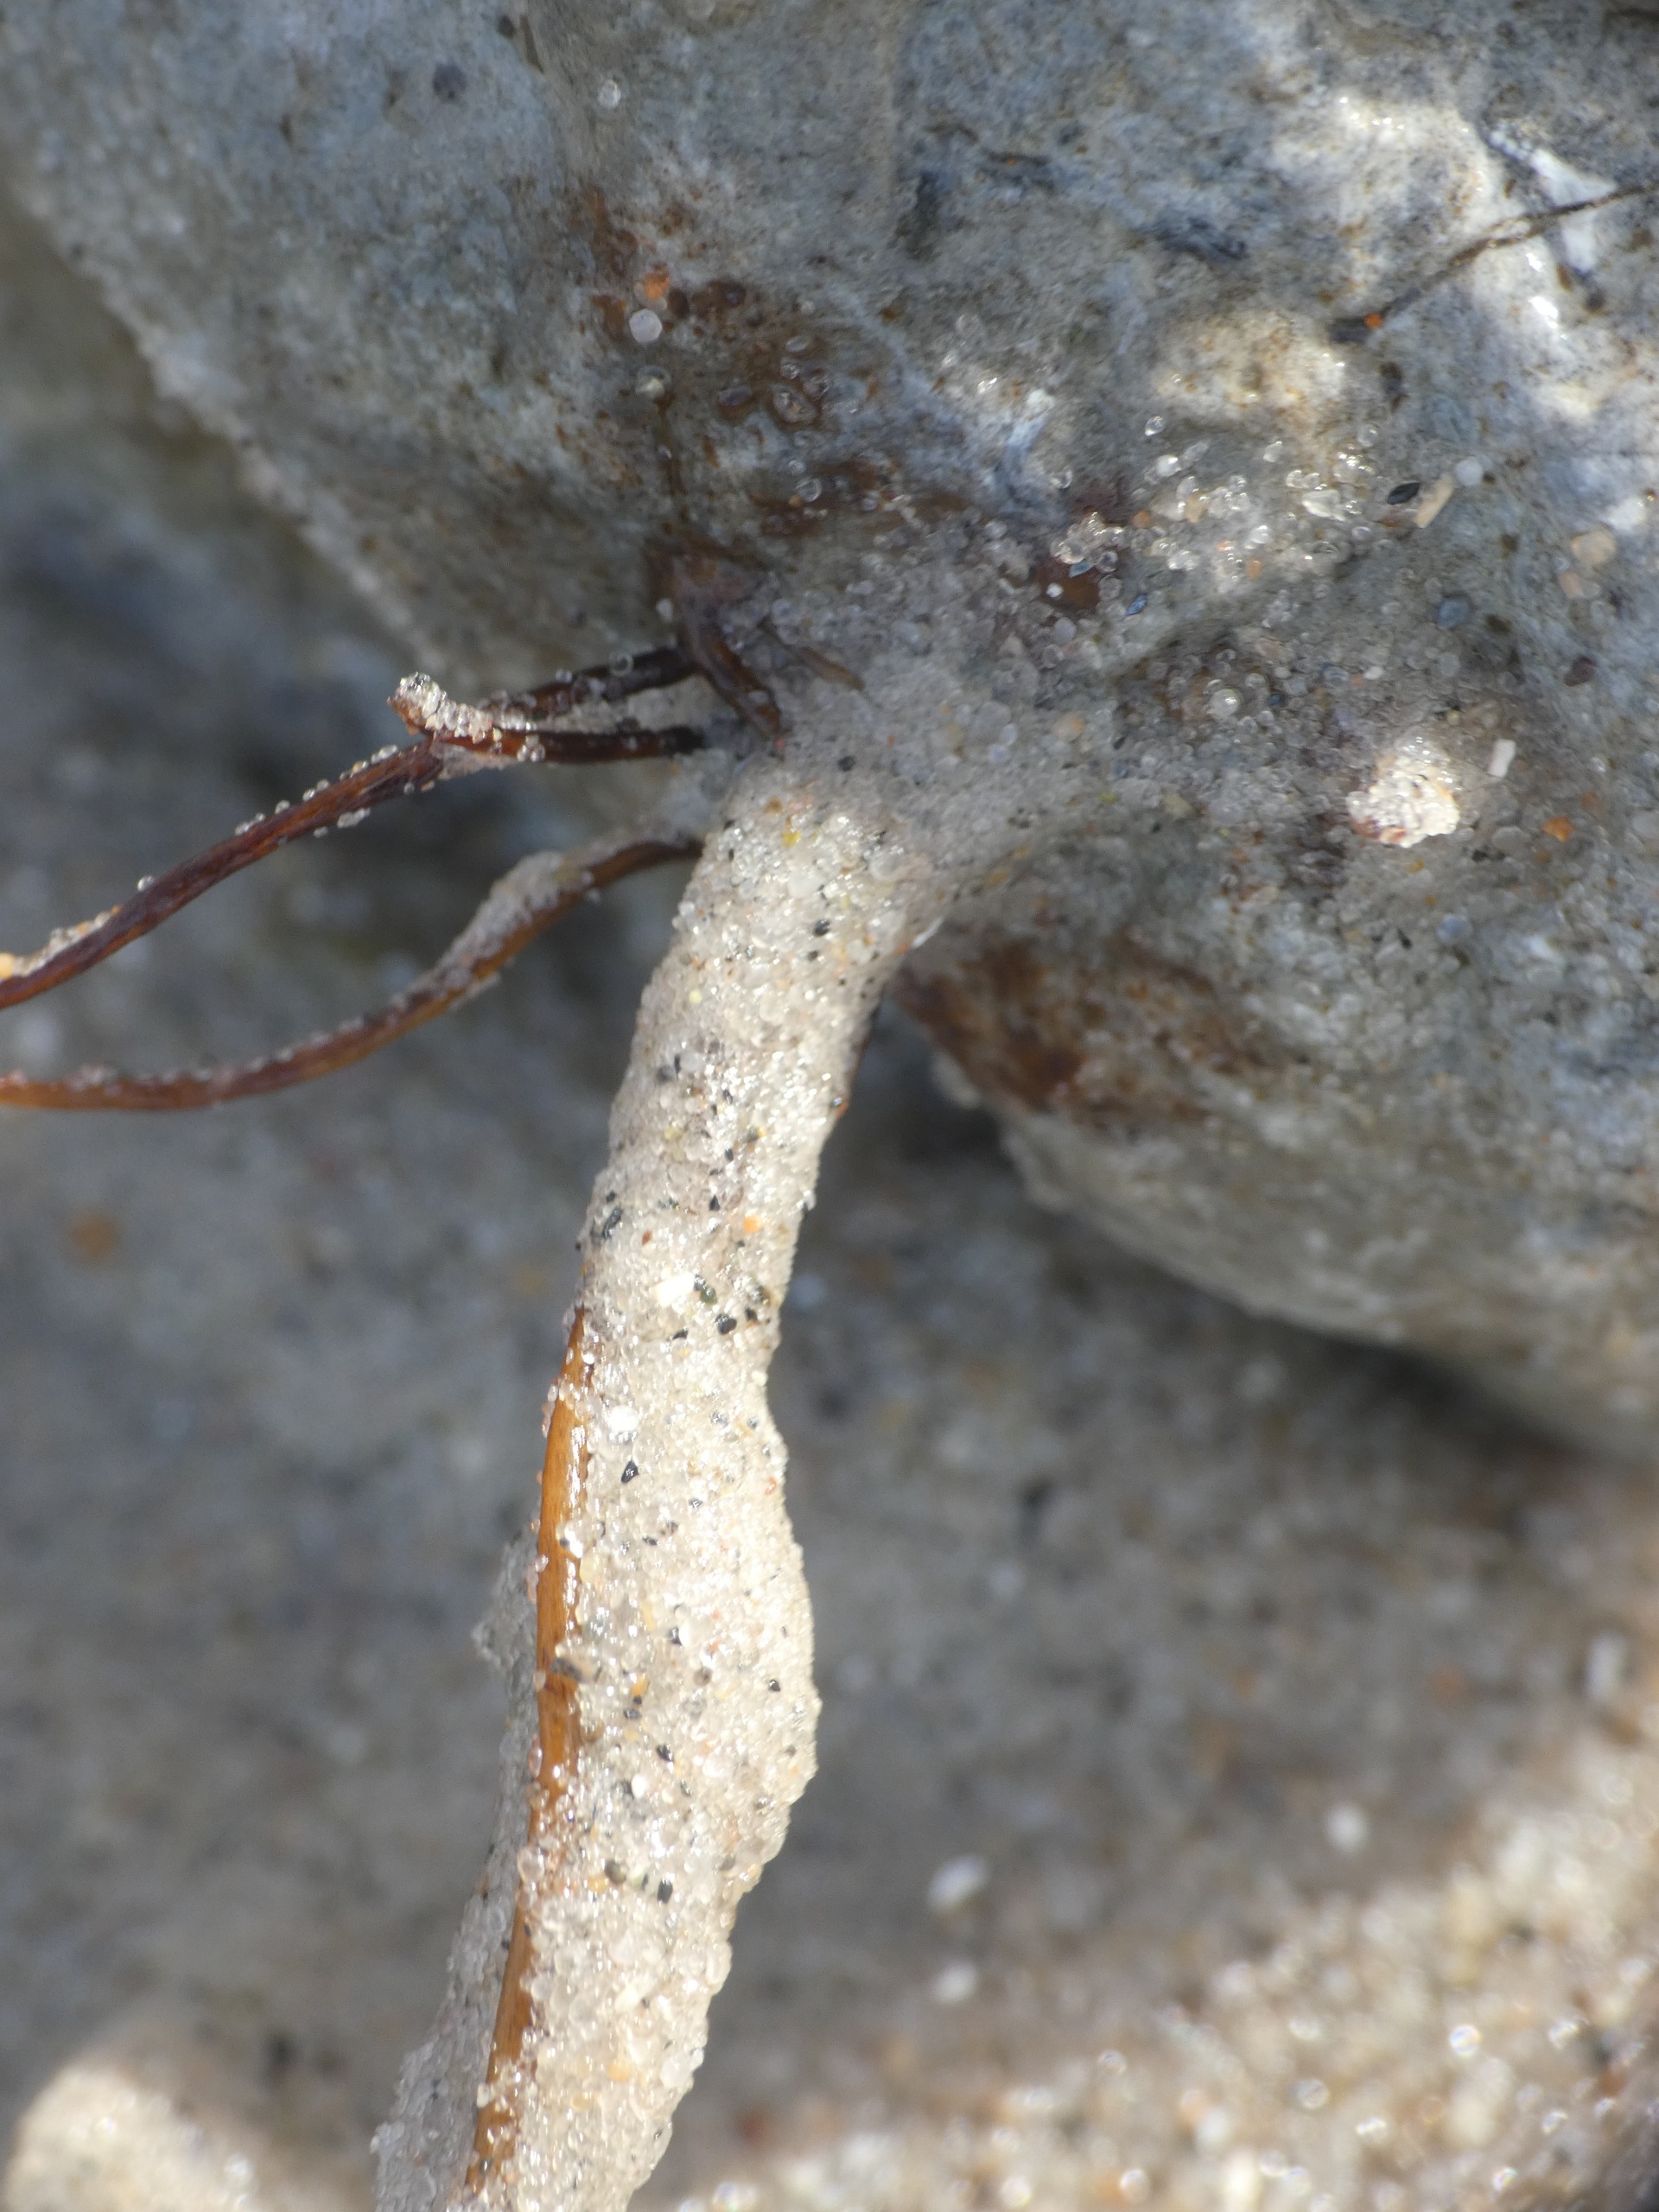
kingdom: Chromista
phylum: Ochrophyta
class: Phaeophyceae
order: Laminariales
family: Chordaceae
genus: Chorda
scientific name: Chorda filum
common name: Strengetang
